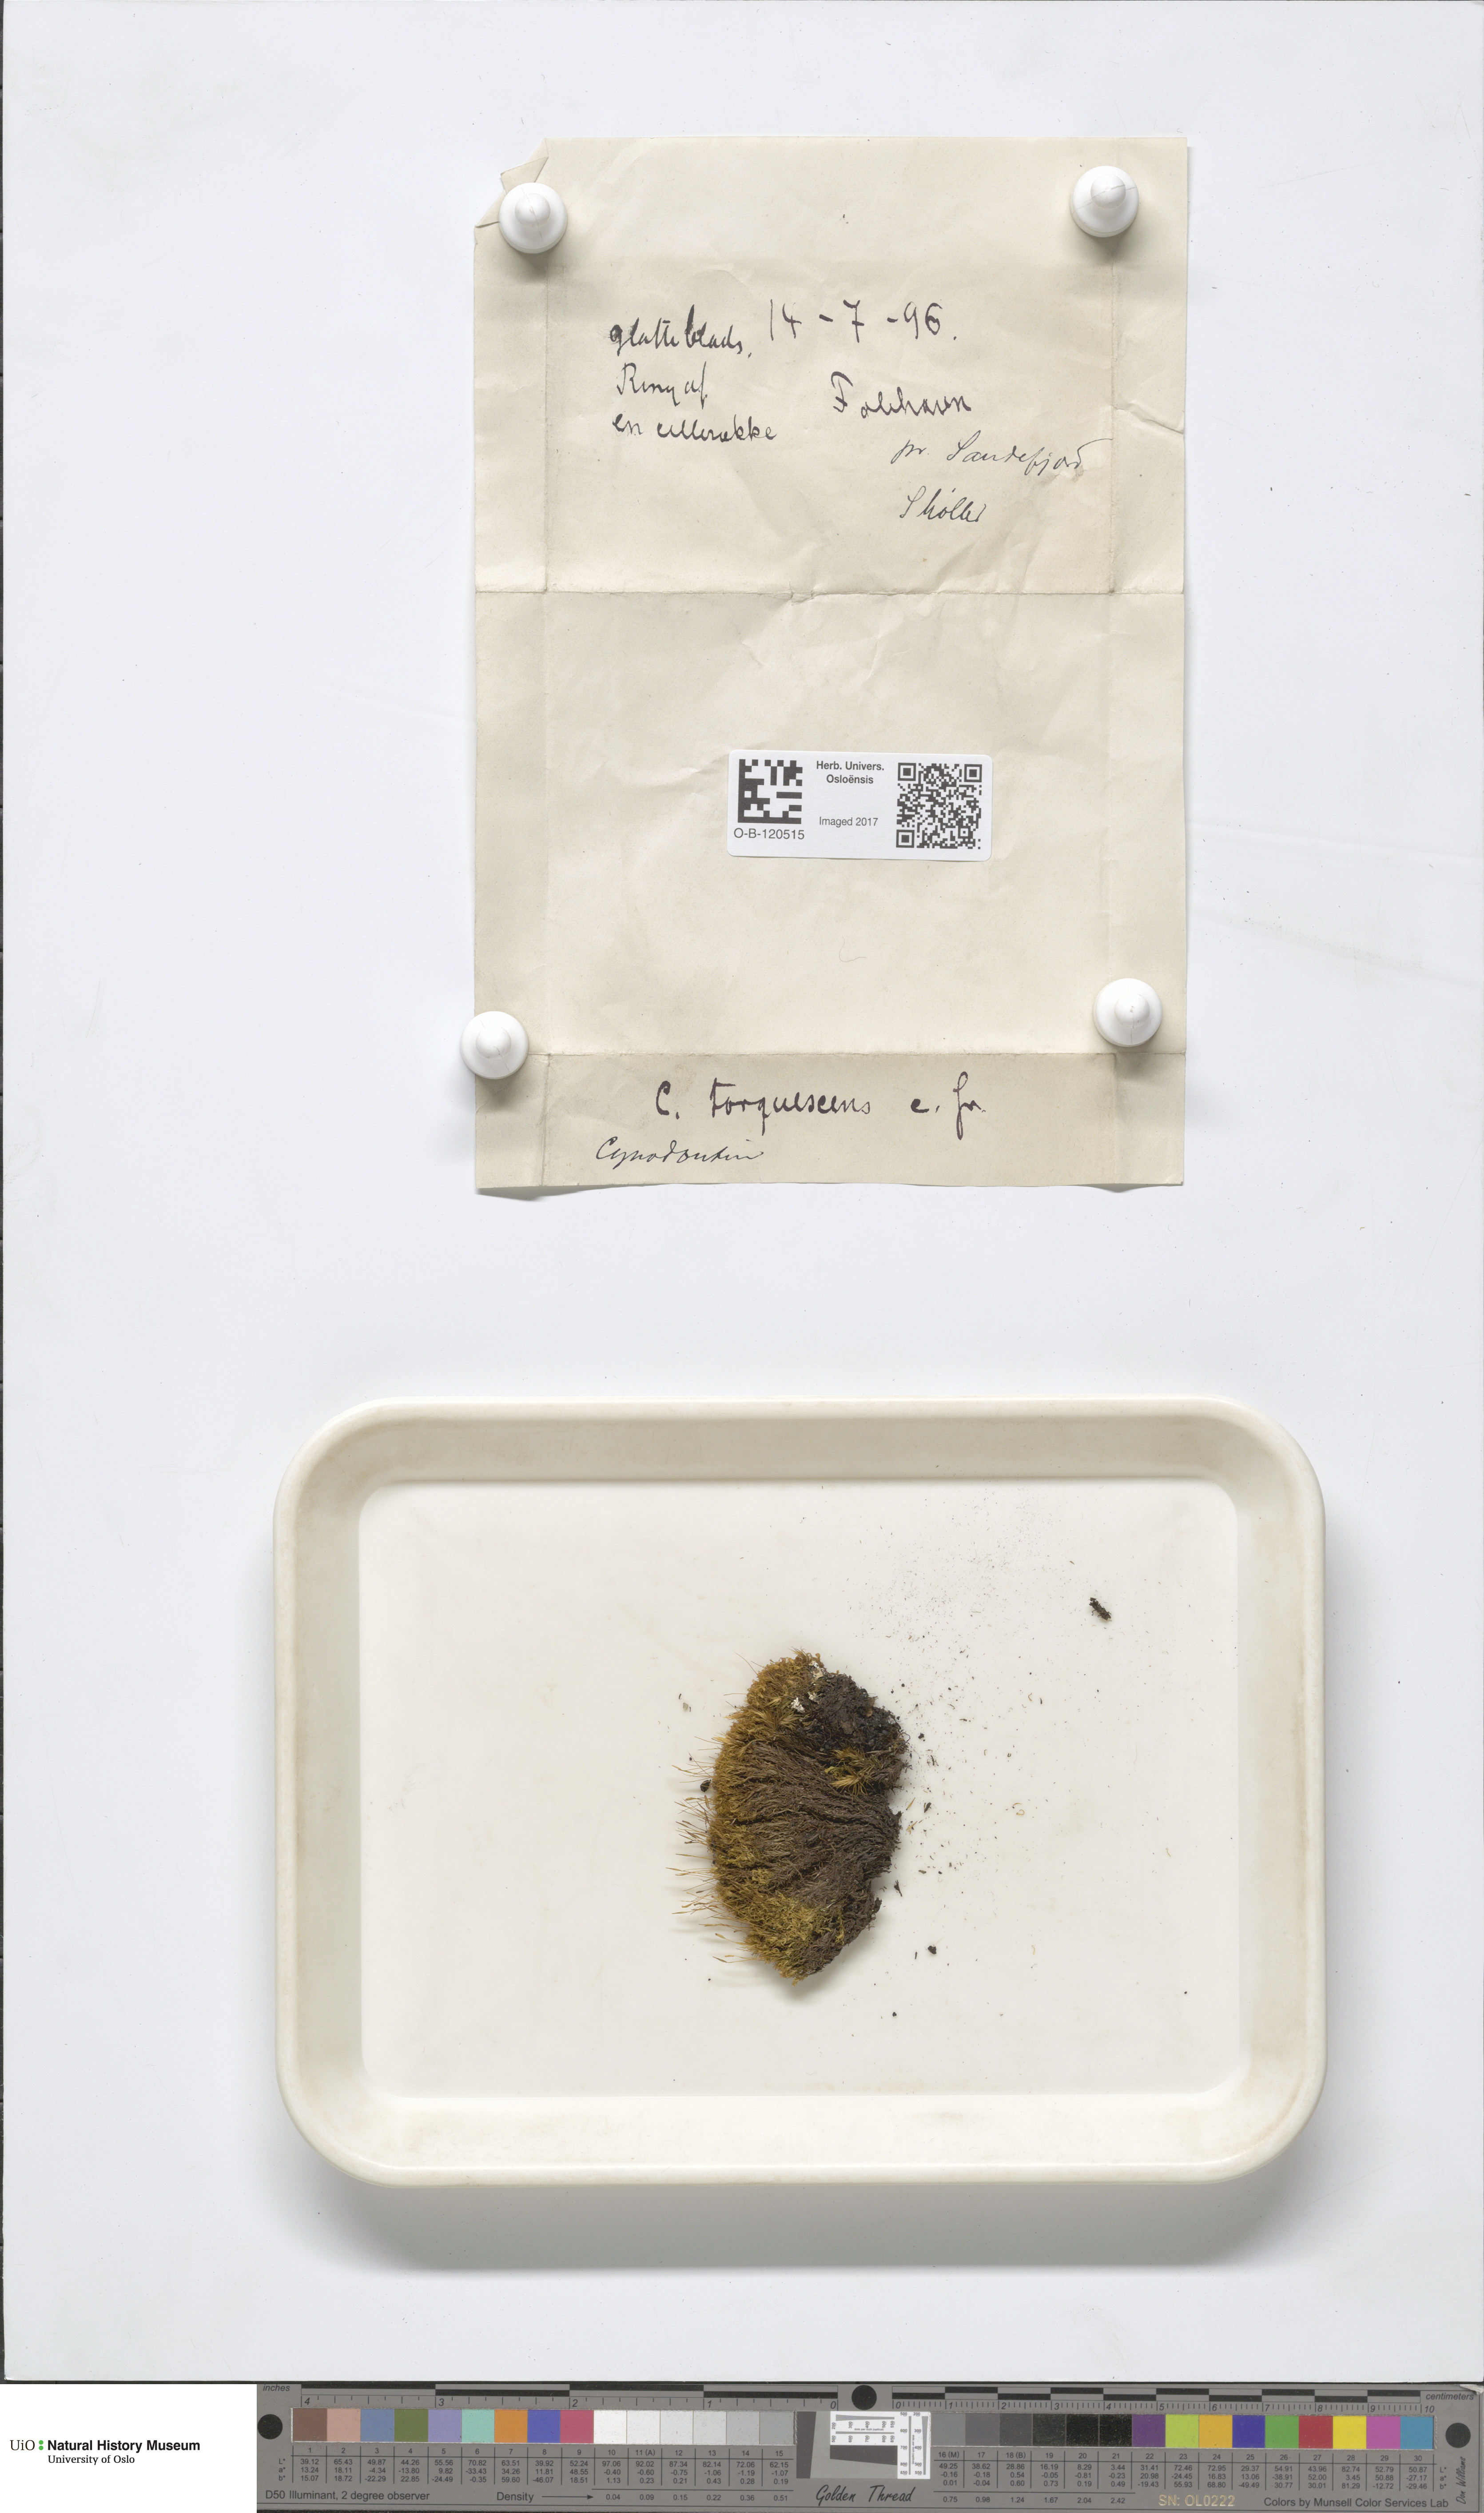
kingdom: Plantae
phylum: Bryophyta
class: Bryopsida
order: Dicranales
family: Rhabdoweisiaceae
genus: Cynodontium
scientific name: Cynodontium tenellum
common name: Delicate dogtooth moss
